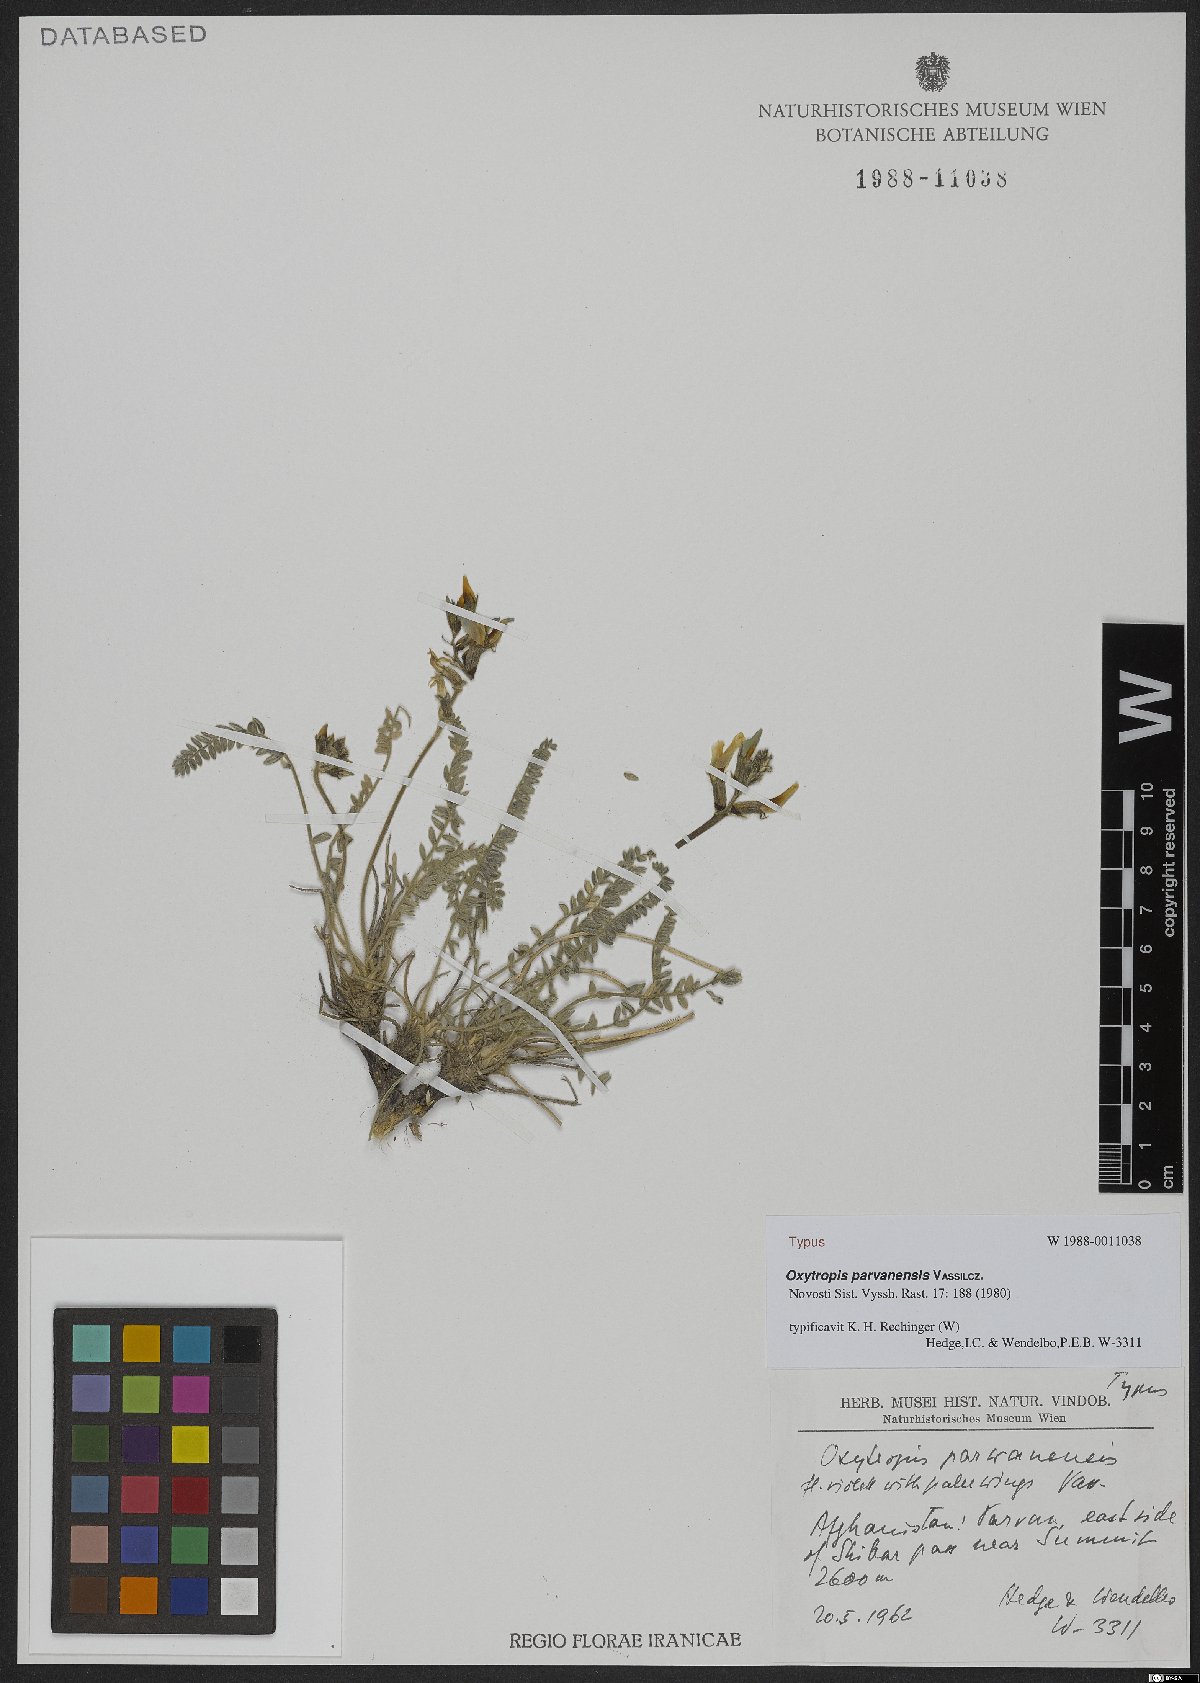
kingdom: Plantae
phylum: Tracheophyta
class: Magnoliopsida
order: Fabales
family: Fabaceae
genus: Oxytropis
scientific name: Oxytropis parvanensis
